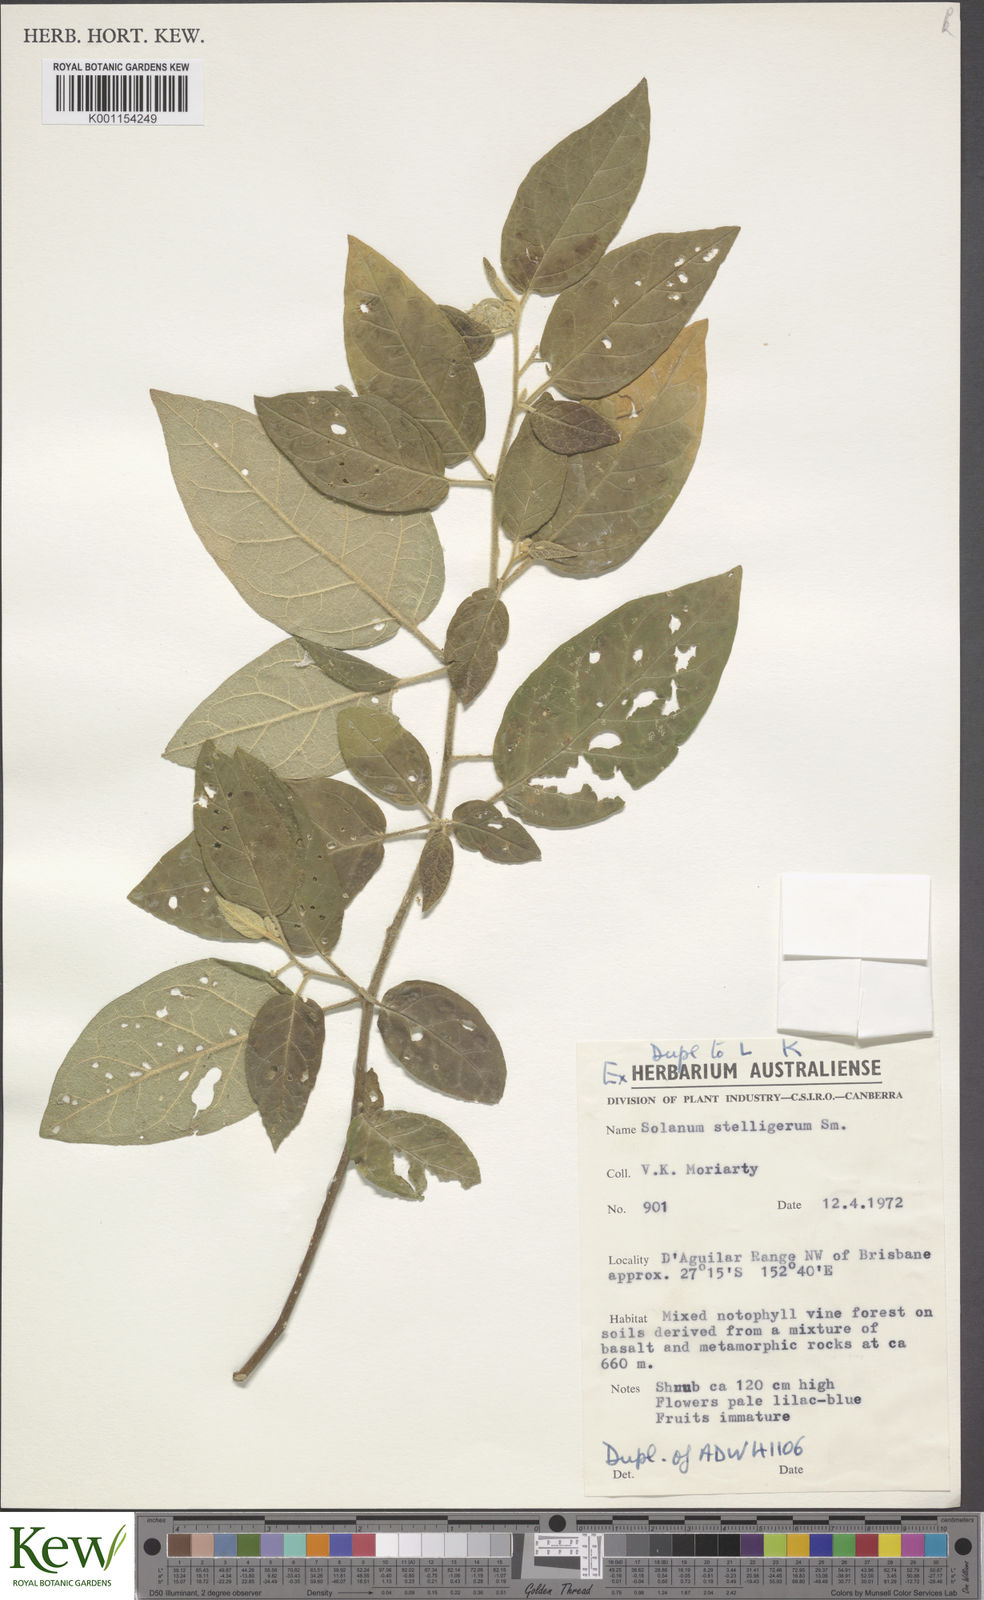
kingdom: Plantae
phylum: Tracheophyta
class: Magnoliopsida
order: Solanales
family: Solanaceae
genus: Solanum
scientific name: Solanum stelligerum
